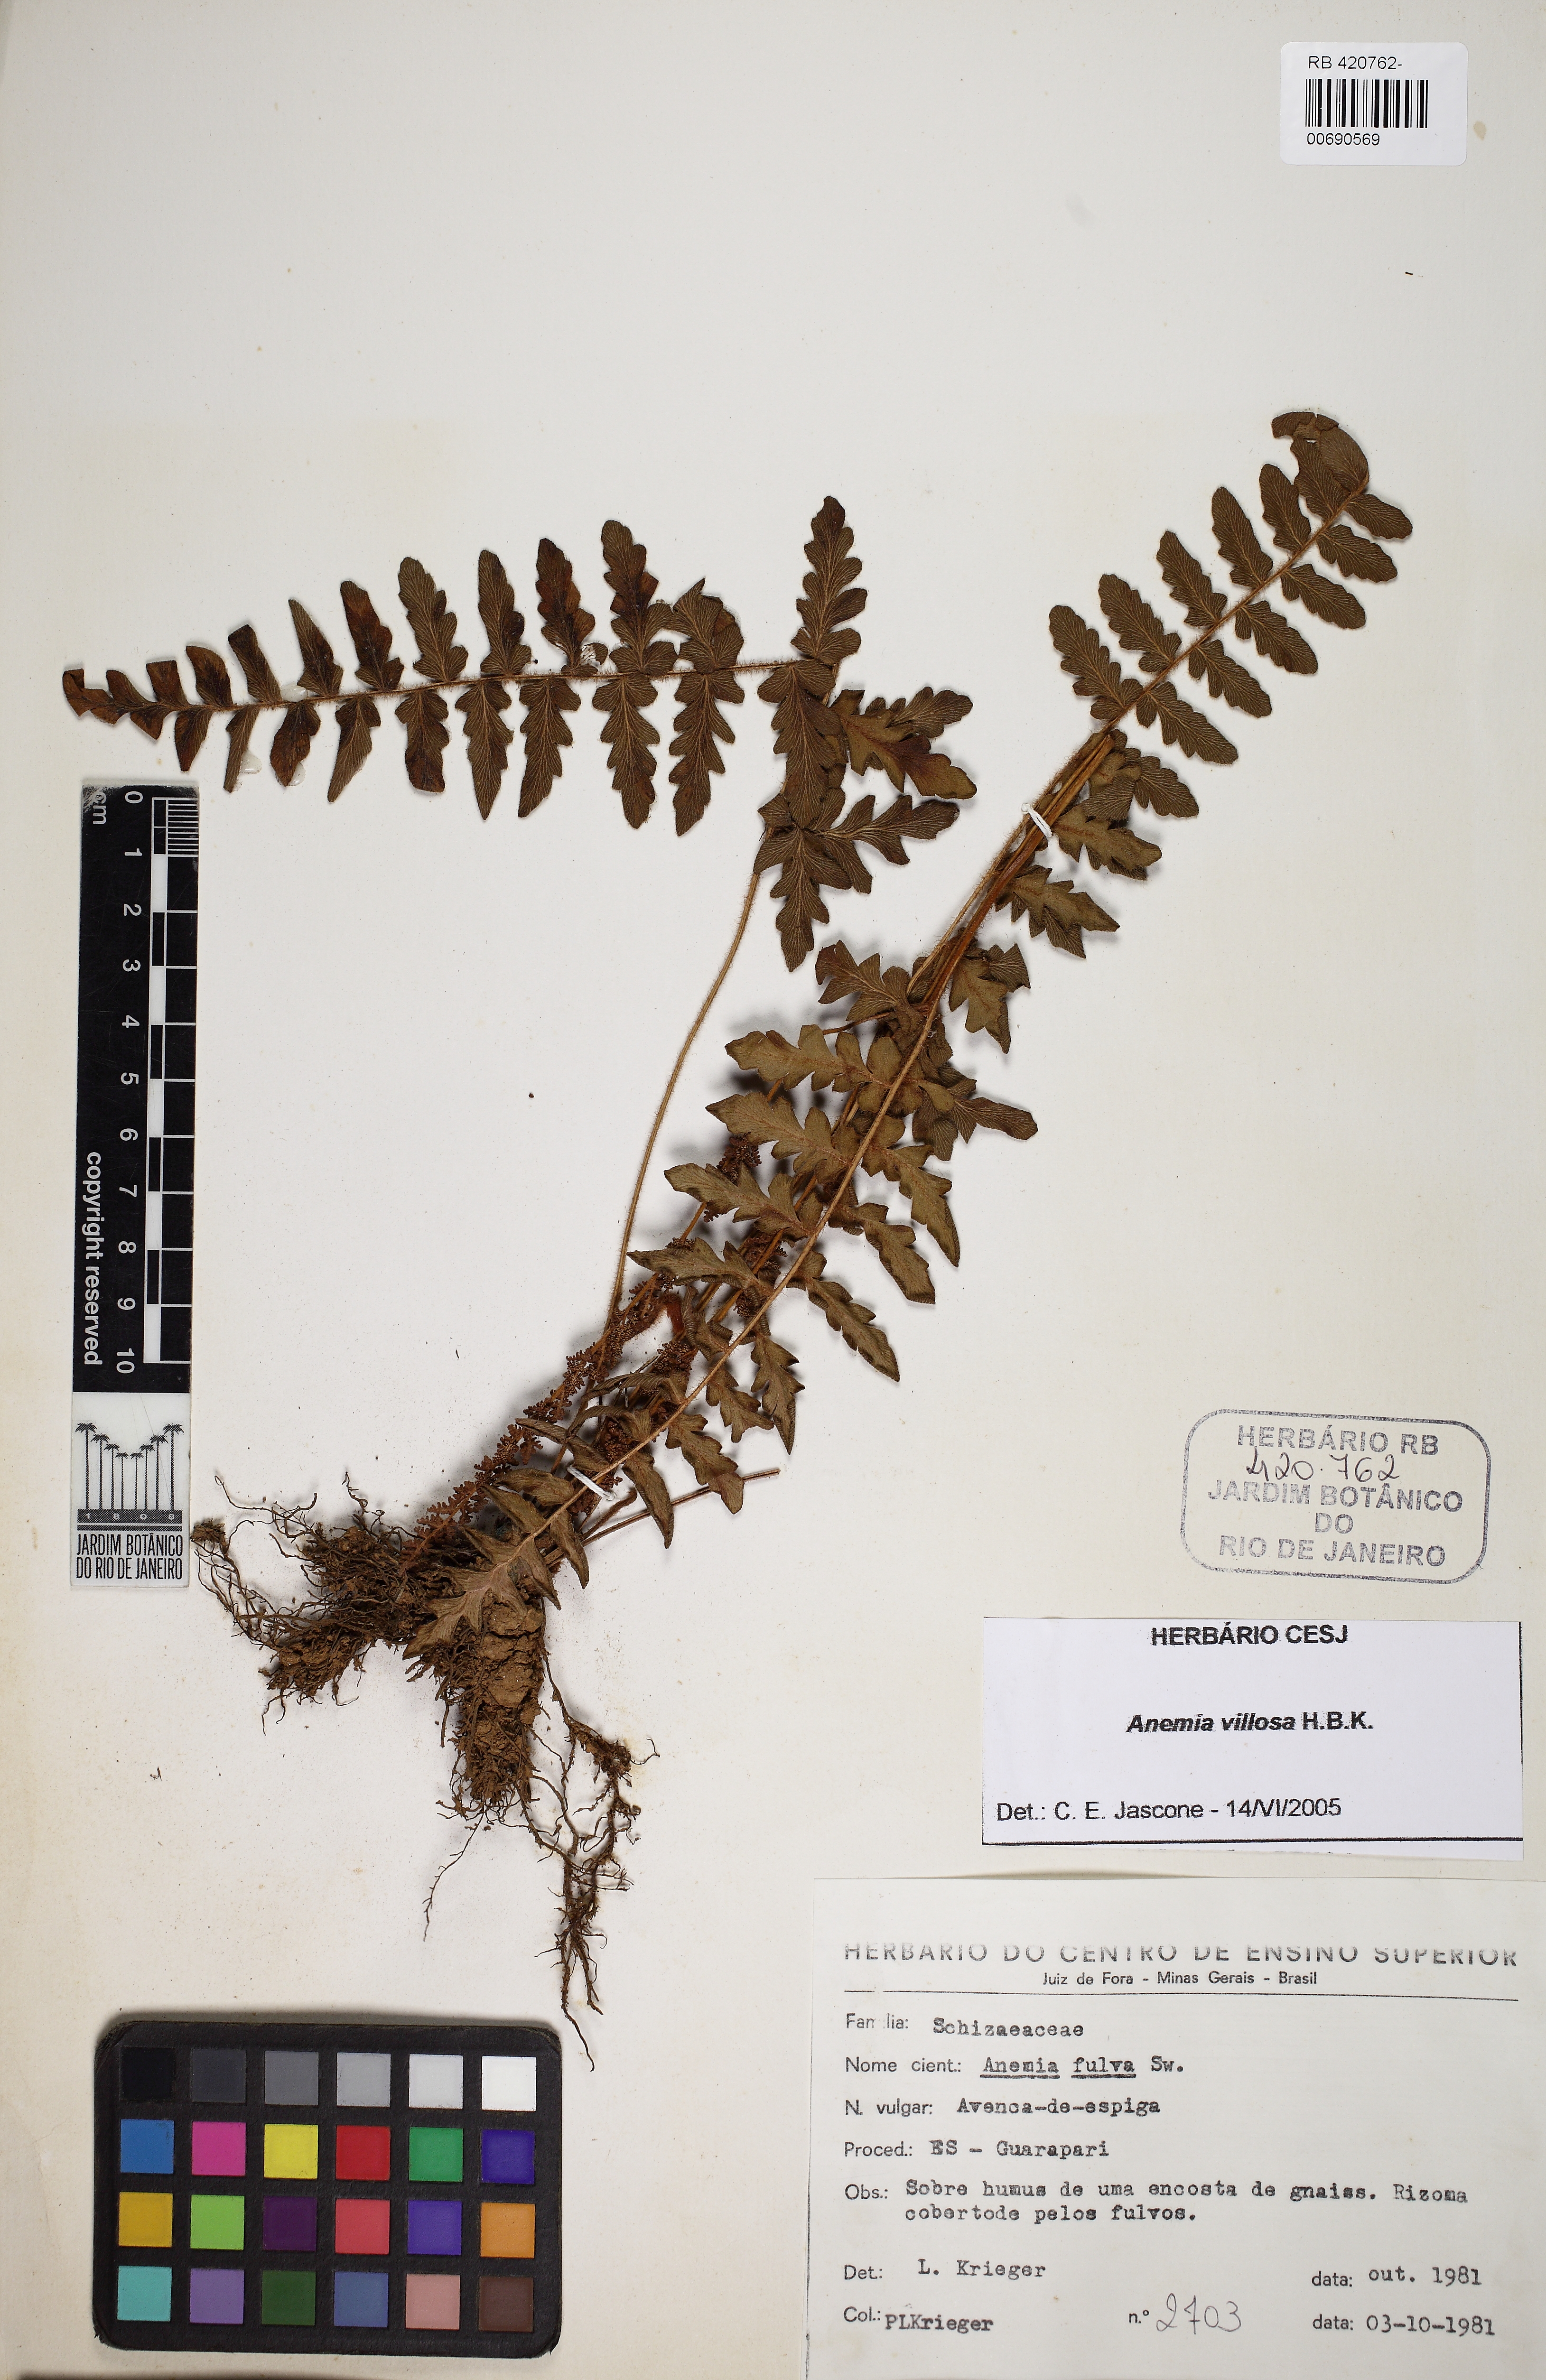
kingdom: Plantae
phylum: Tracheophyta
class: Polypodiopsida
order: Schizaeales
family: Anemiaceae
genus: Anemia
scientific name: Anemia villosa
